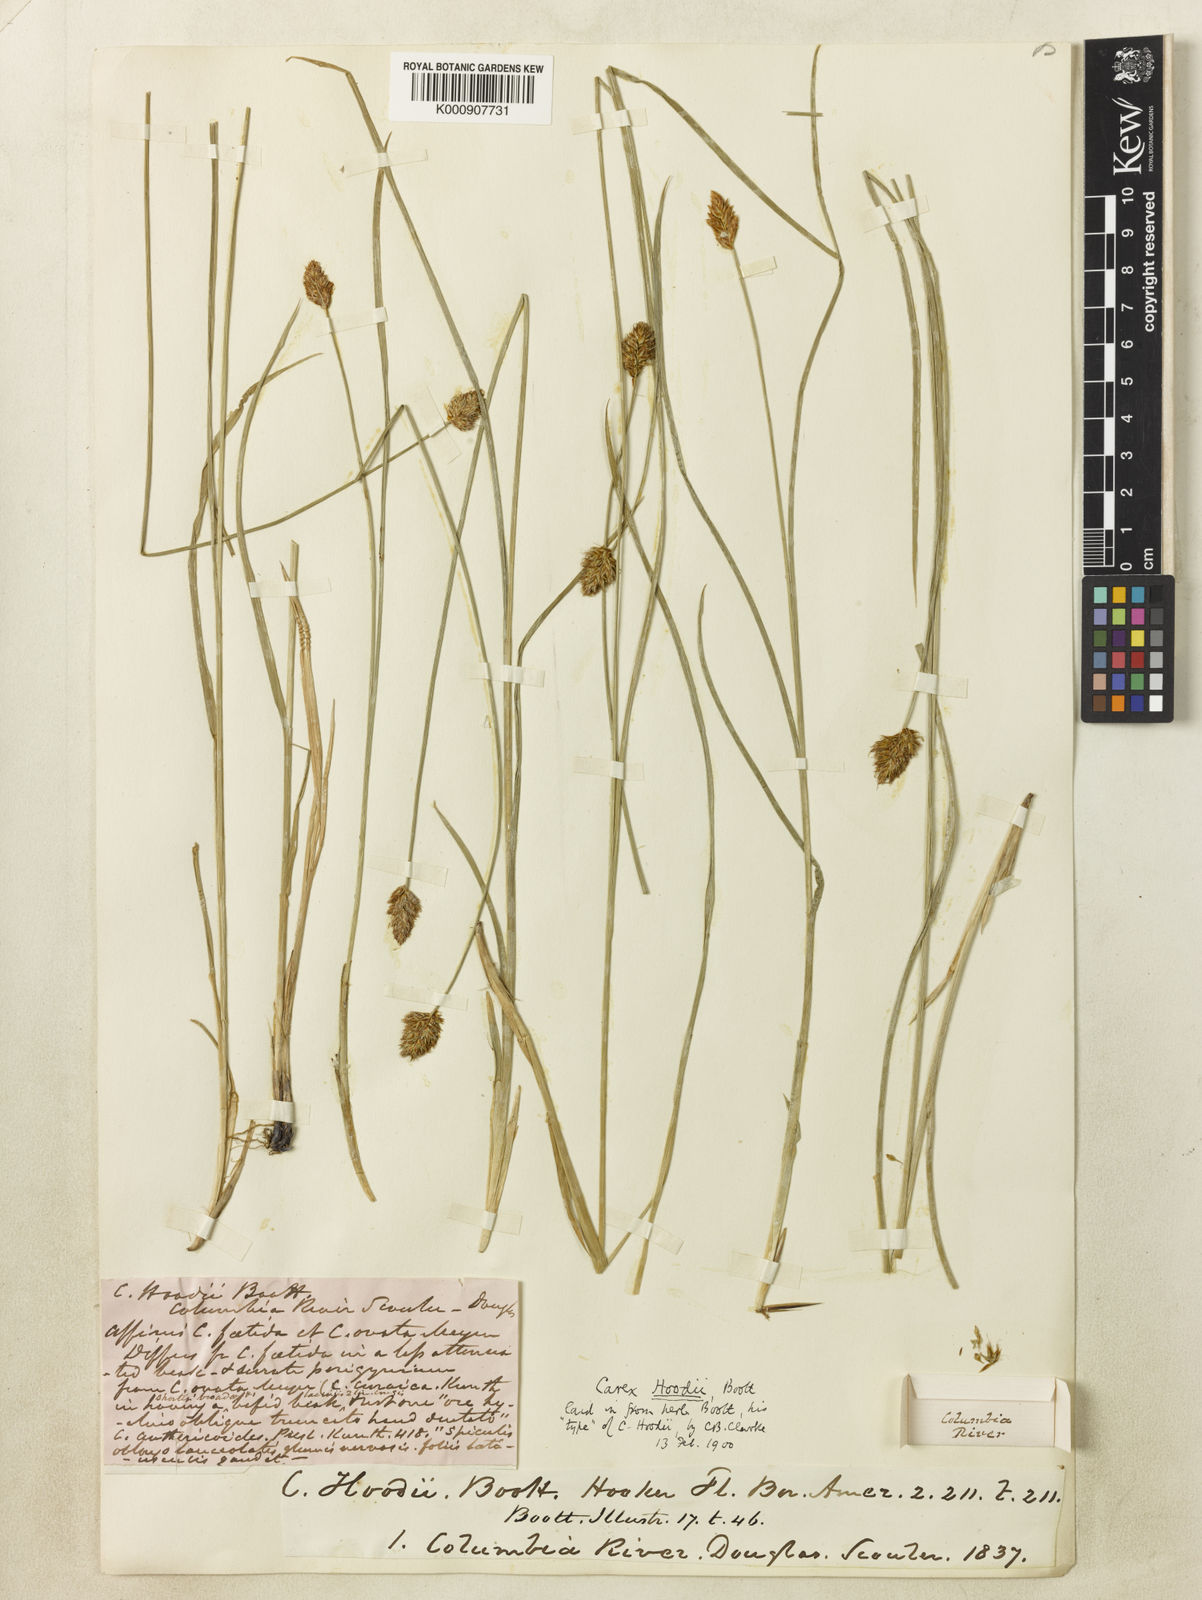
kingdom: Plantae
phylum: Tracheophyta
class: Liliopsida
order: Poales
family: Cyperaceae
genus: Carex
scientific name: Carex hoodii
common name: Hood's sedge
